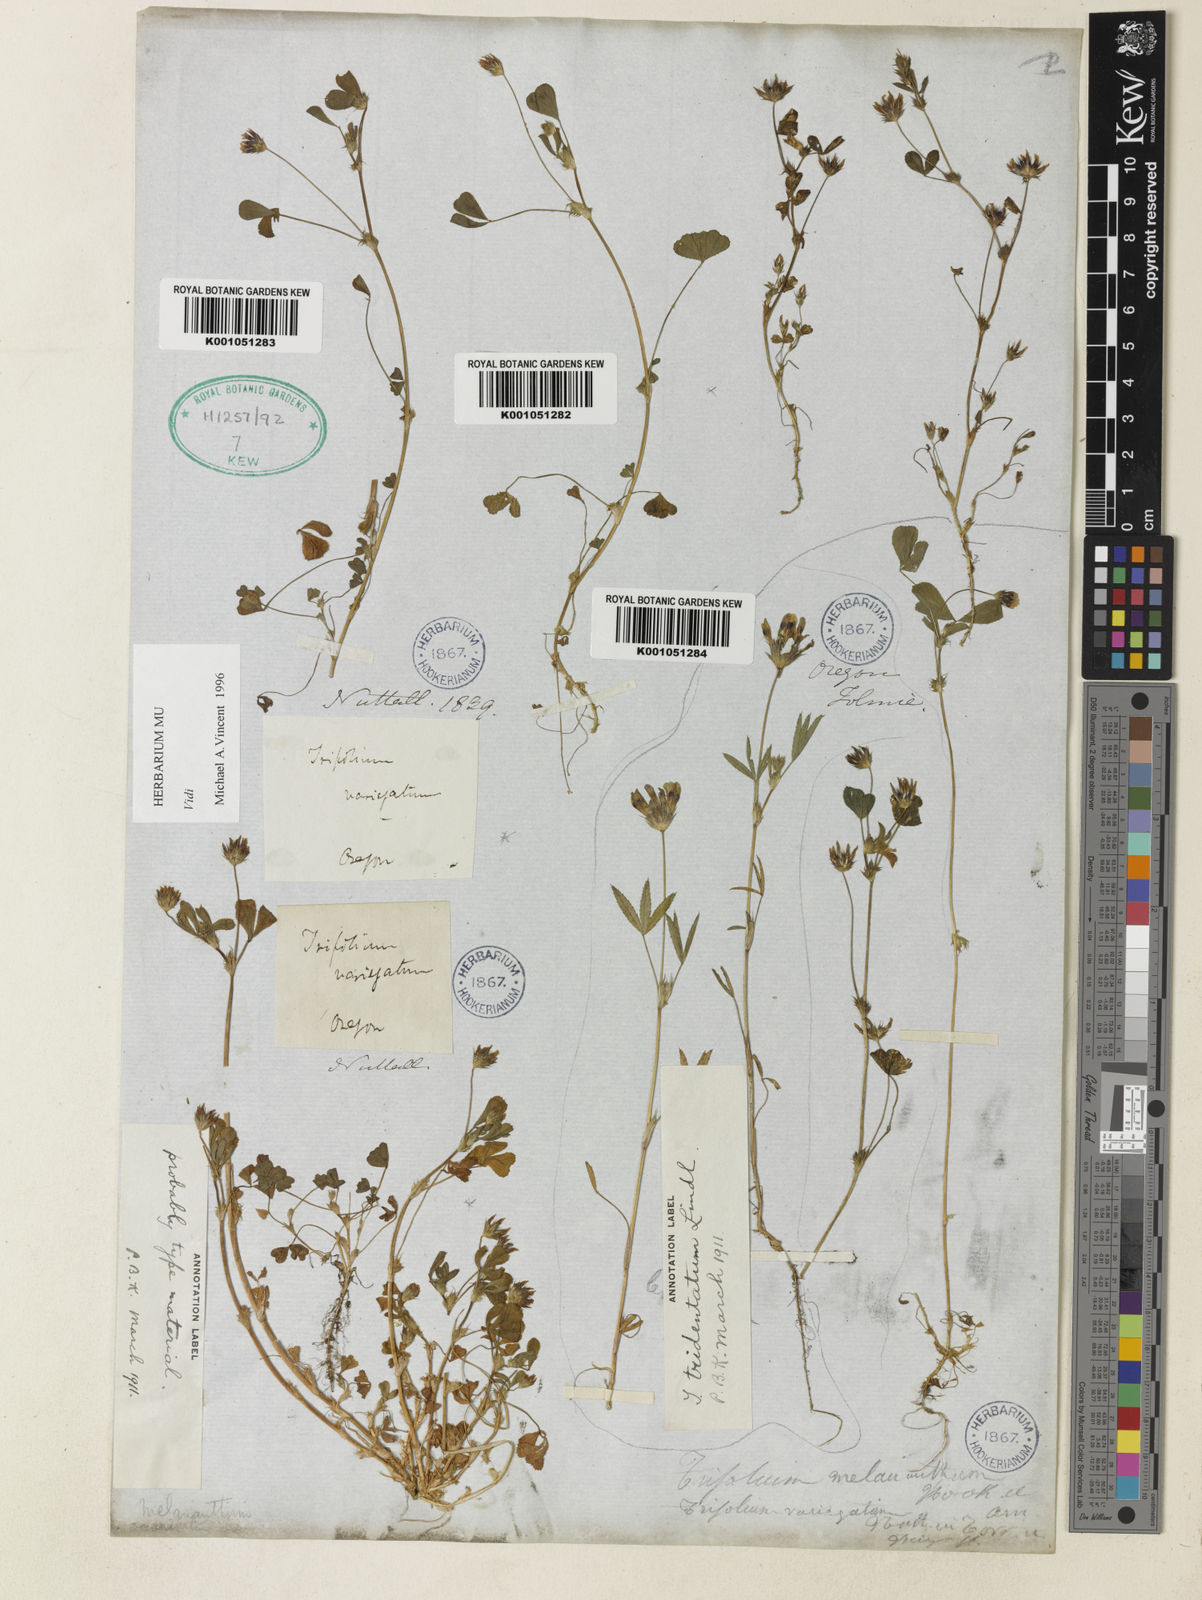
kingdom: Plantae
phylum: Tracheophyta
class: Magnoliopsida
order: Fabales
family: Fabaceae
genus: Trifolium
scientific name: Trifolium variegatum
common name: Whitetip clover
